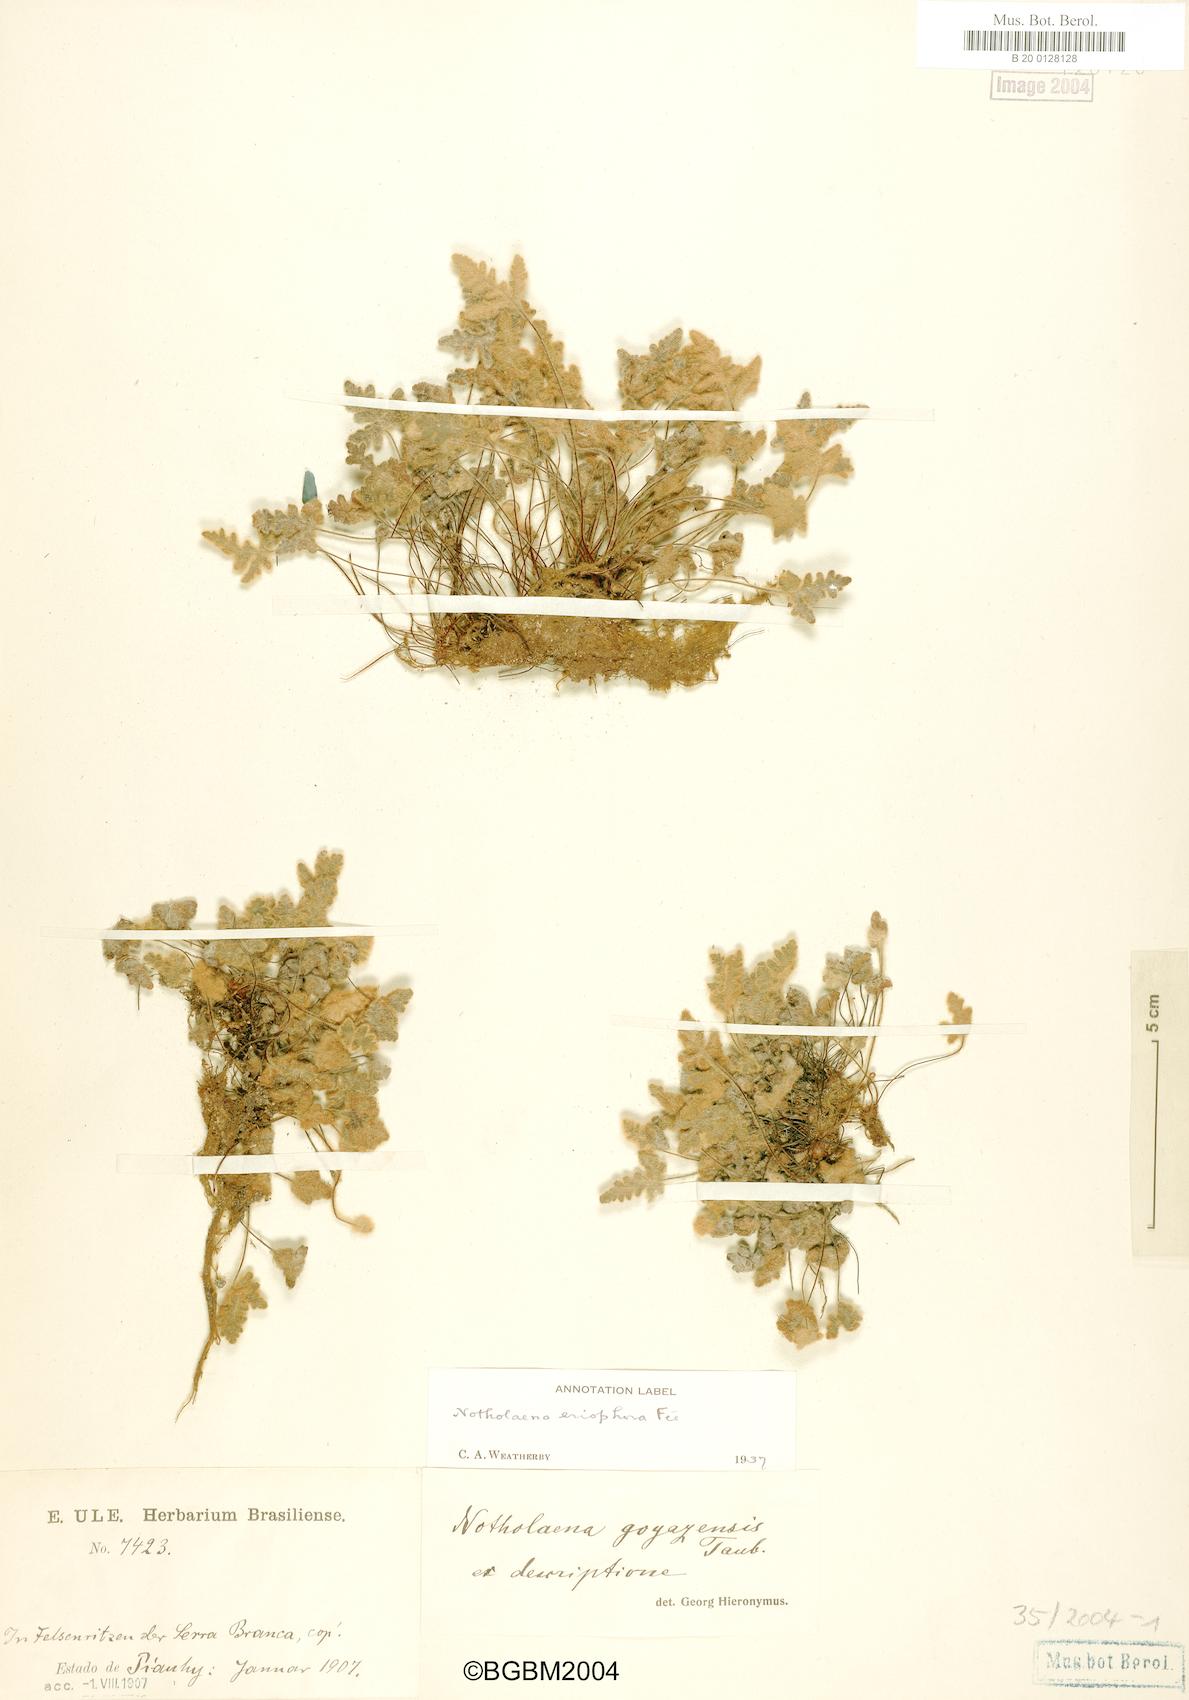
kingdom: Plantae
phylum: Tracheophyta
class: Polypodiopsida
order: Polypodiales
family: Pteridaceae
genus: Mineirella
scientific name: Mineirella goyazensis
